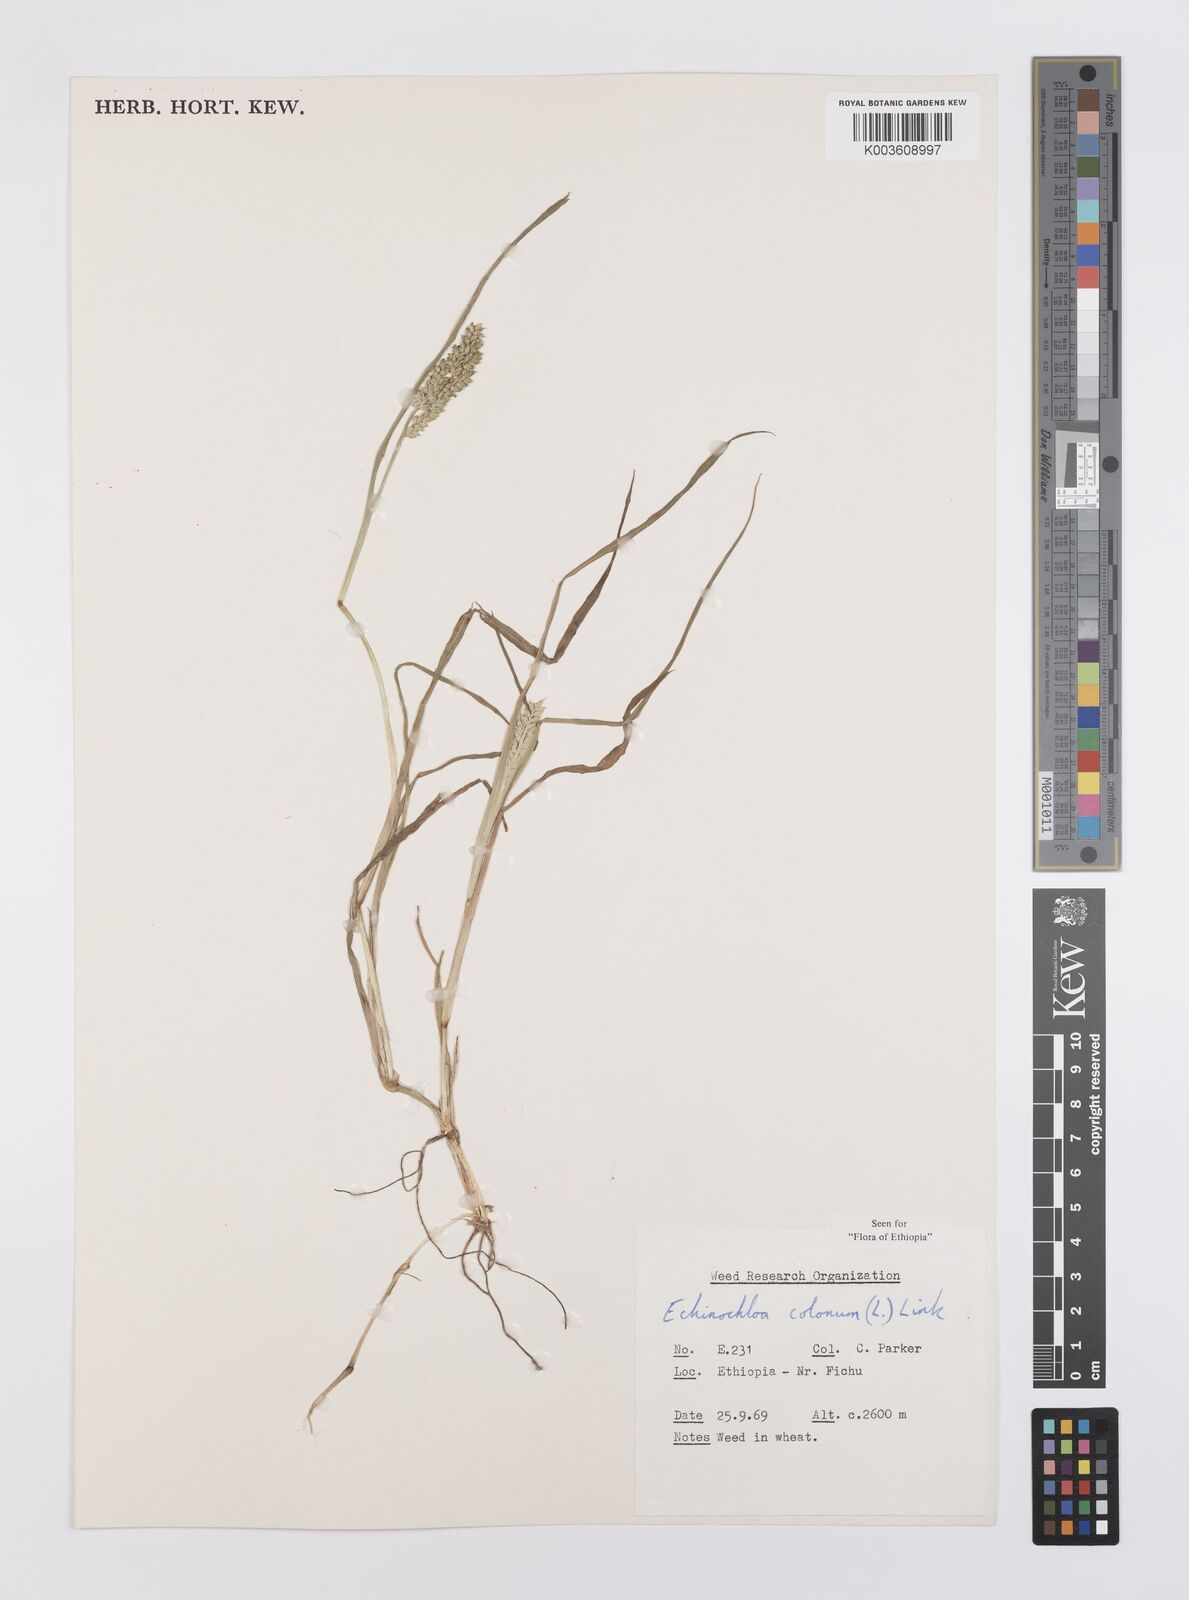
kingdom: Plantae
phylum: Tracheophyta
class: Liliopsida
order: Poales
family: Poaceae
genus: Echinochloa
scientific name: Echinochloa colonum
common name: Jungle rice
